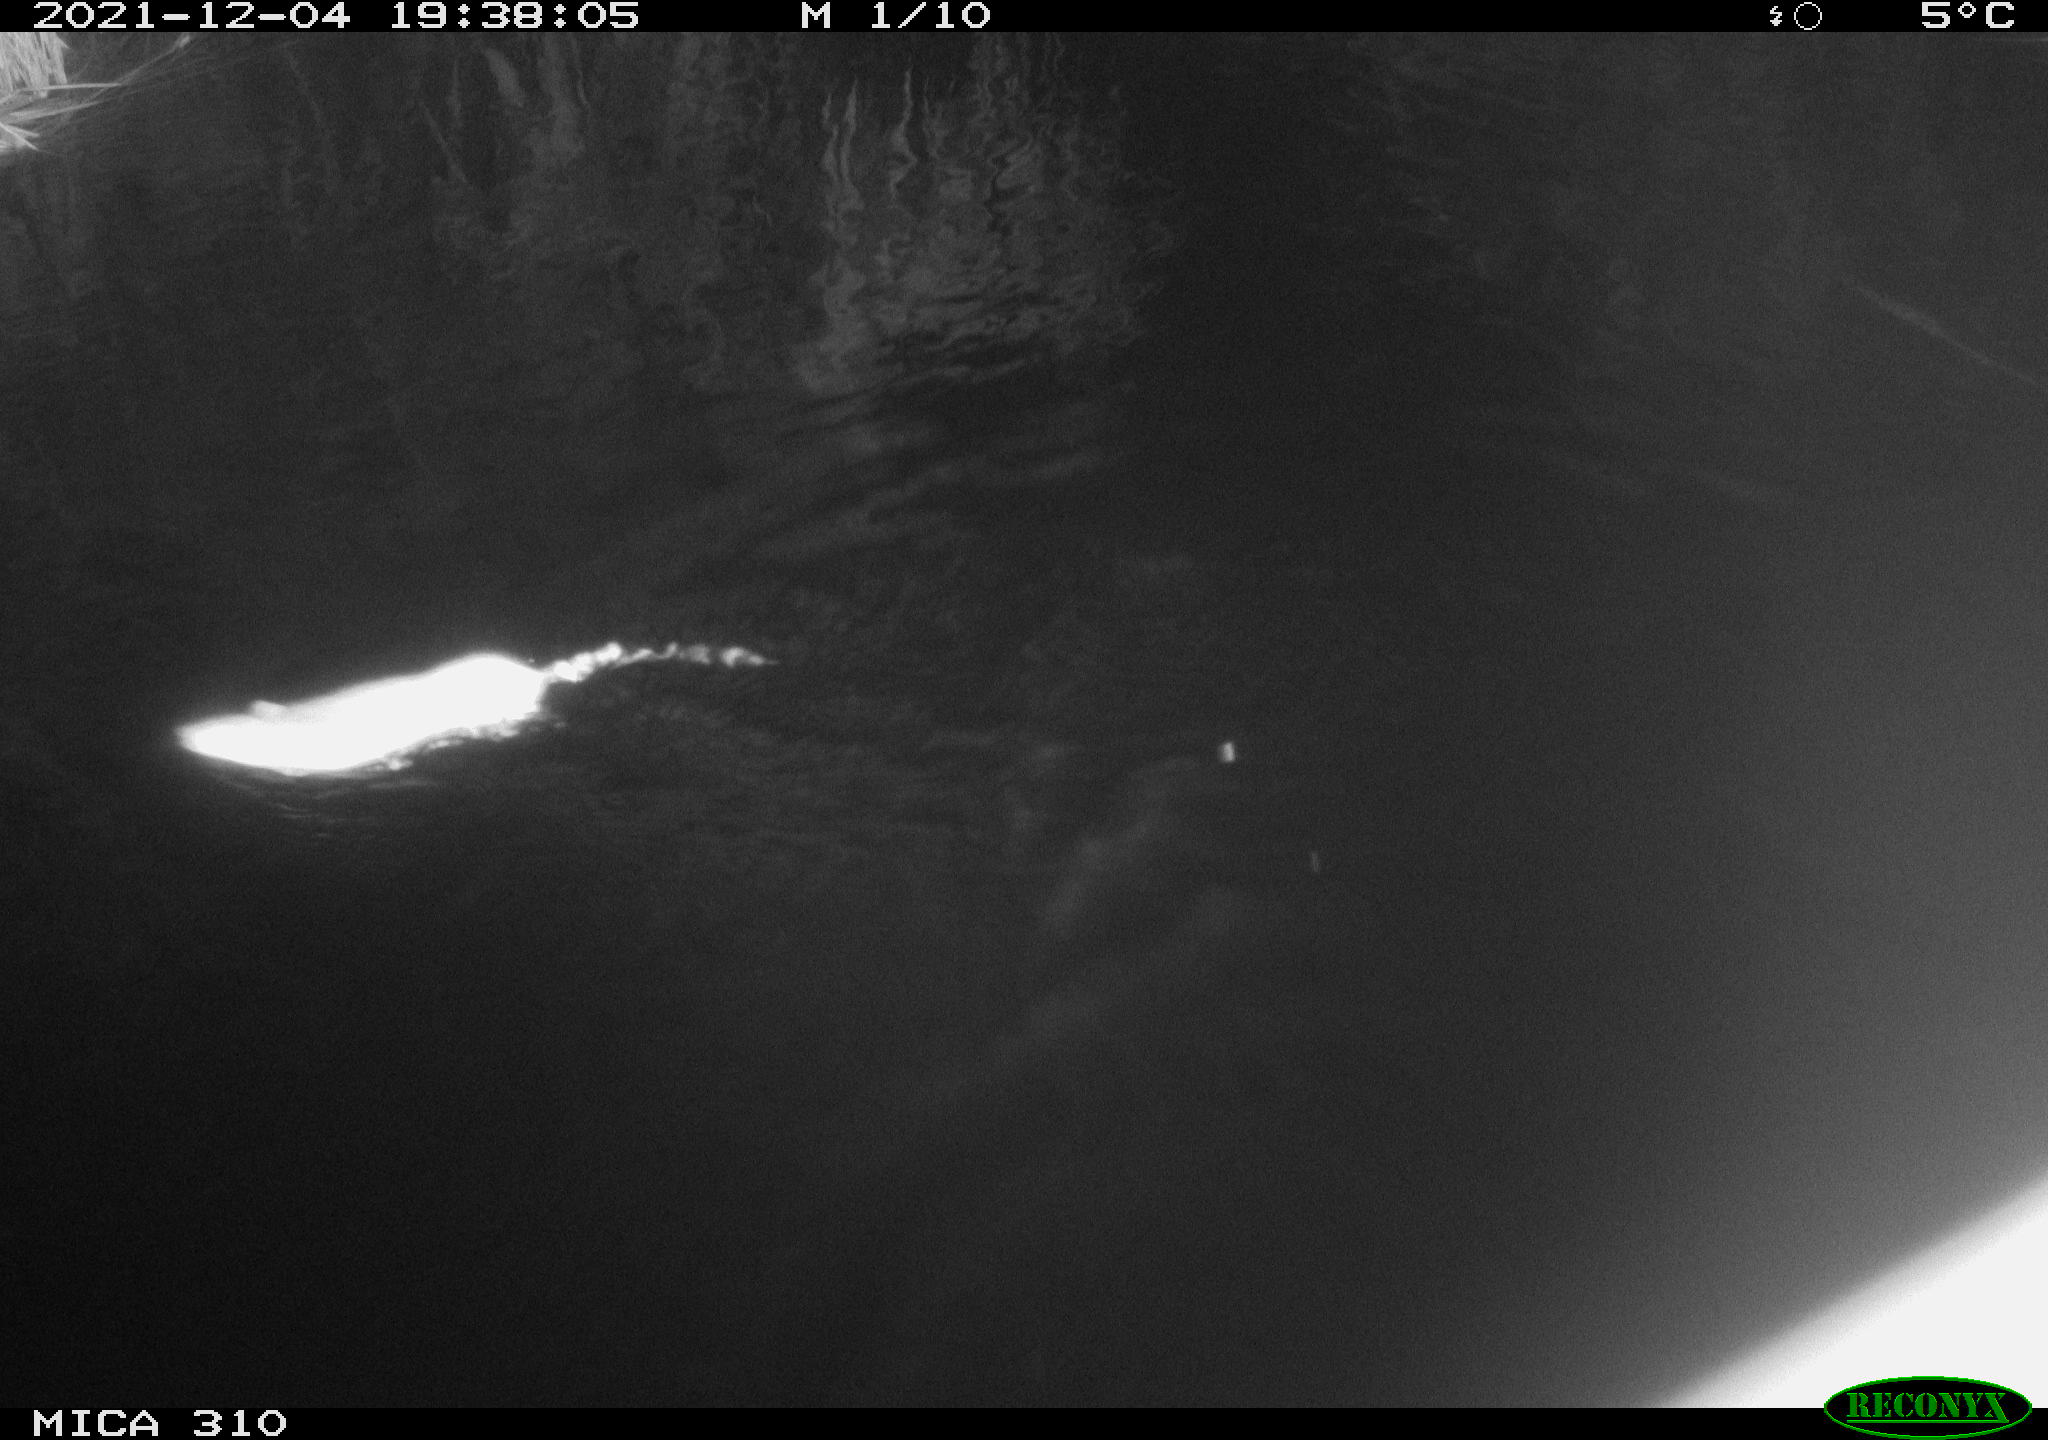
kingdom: Animalia
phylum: Chordata
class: Mammalia
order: Rodentia
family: Muridae
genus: Rattus
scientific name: Rattus norvegicus
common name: Brown rat
